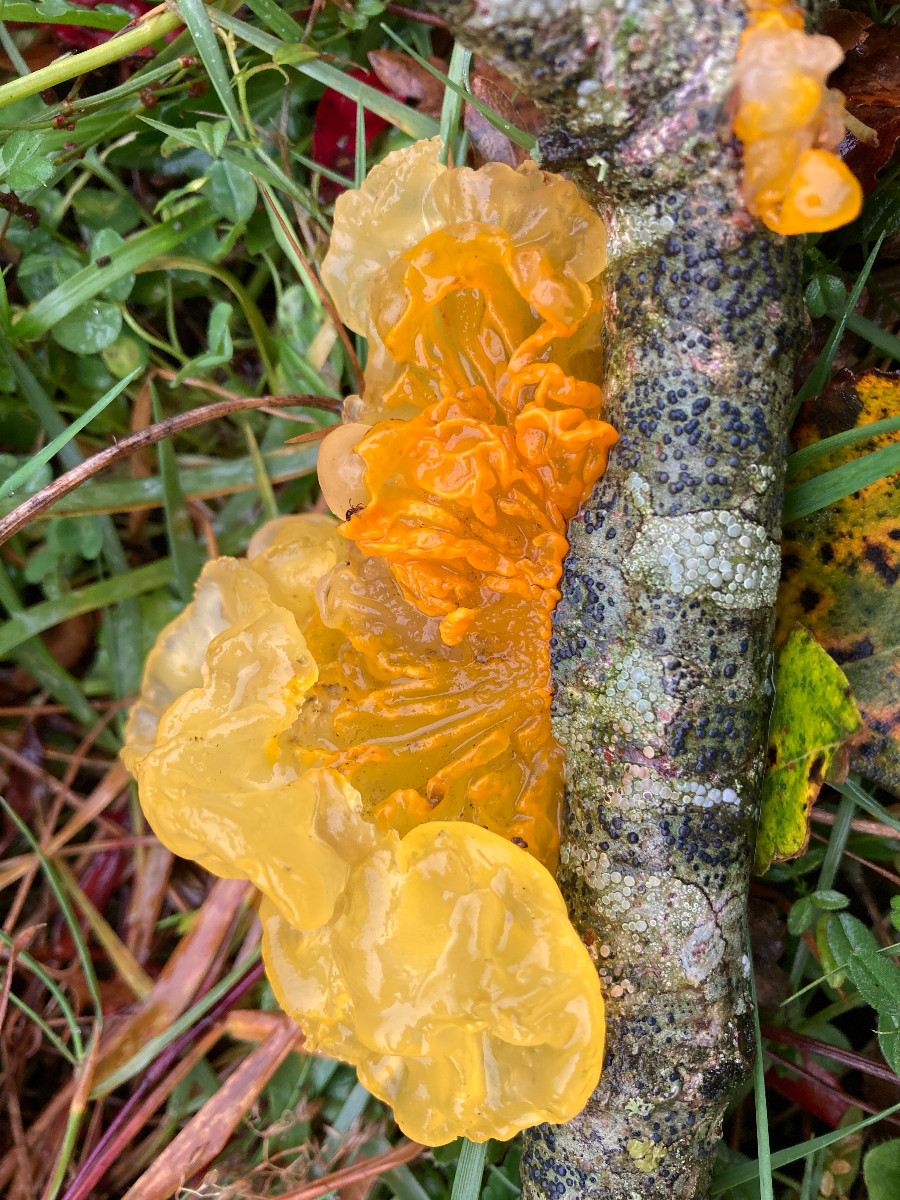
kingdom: Fungi
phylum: Basidiomycota
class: Tremellomycetes
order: Tremellales
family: Tremellaceae
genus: Tremella
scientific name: Tremella mesenterica
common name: gul bævresvamp
